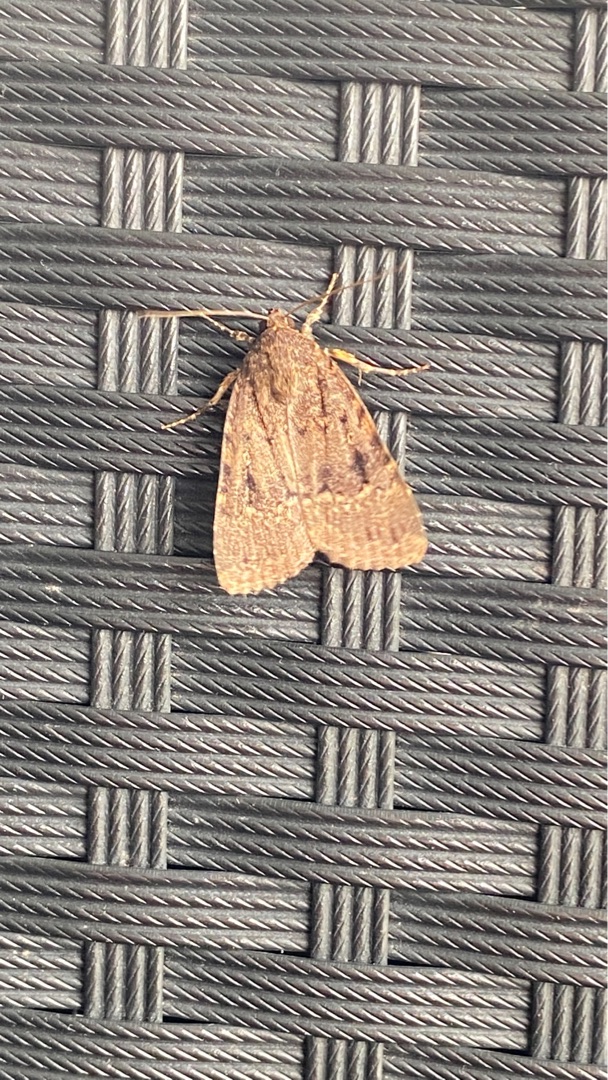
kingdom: Animalia
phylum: Arthropoda
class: Insecta
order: Lepidoptera
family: Noctuidae
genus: Amphipyra
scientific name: Amphipyra pyramidea
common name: Pyramideugle
